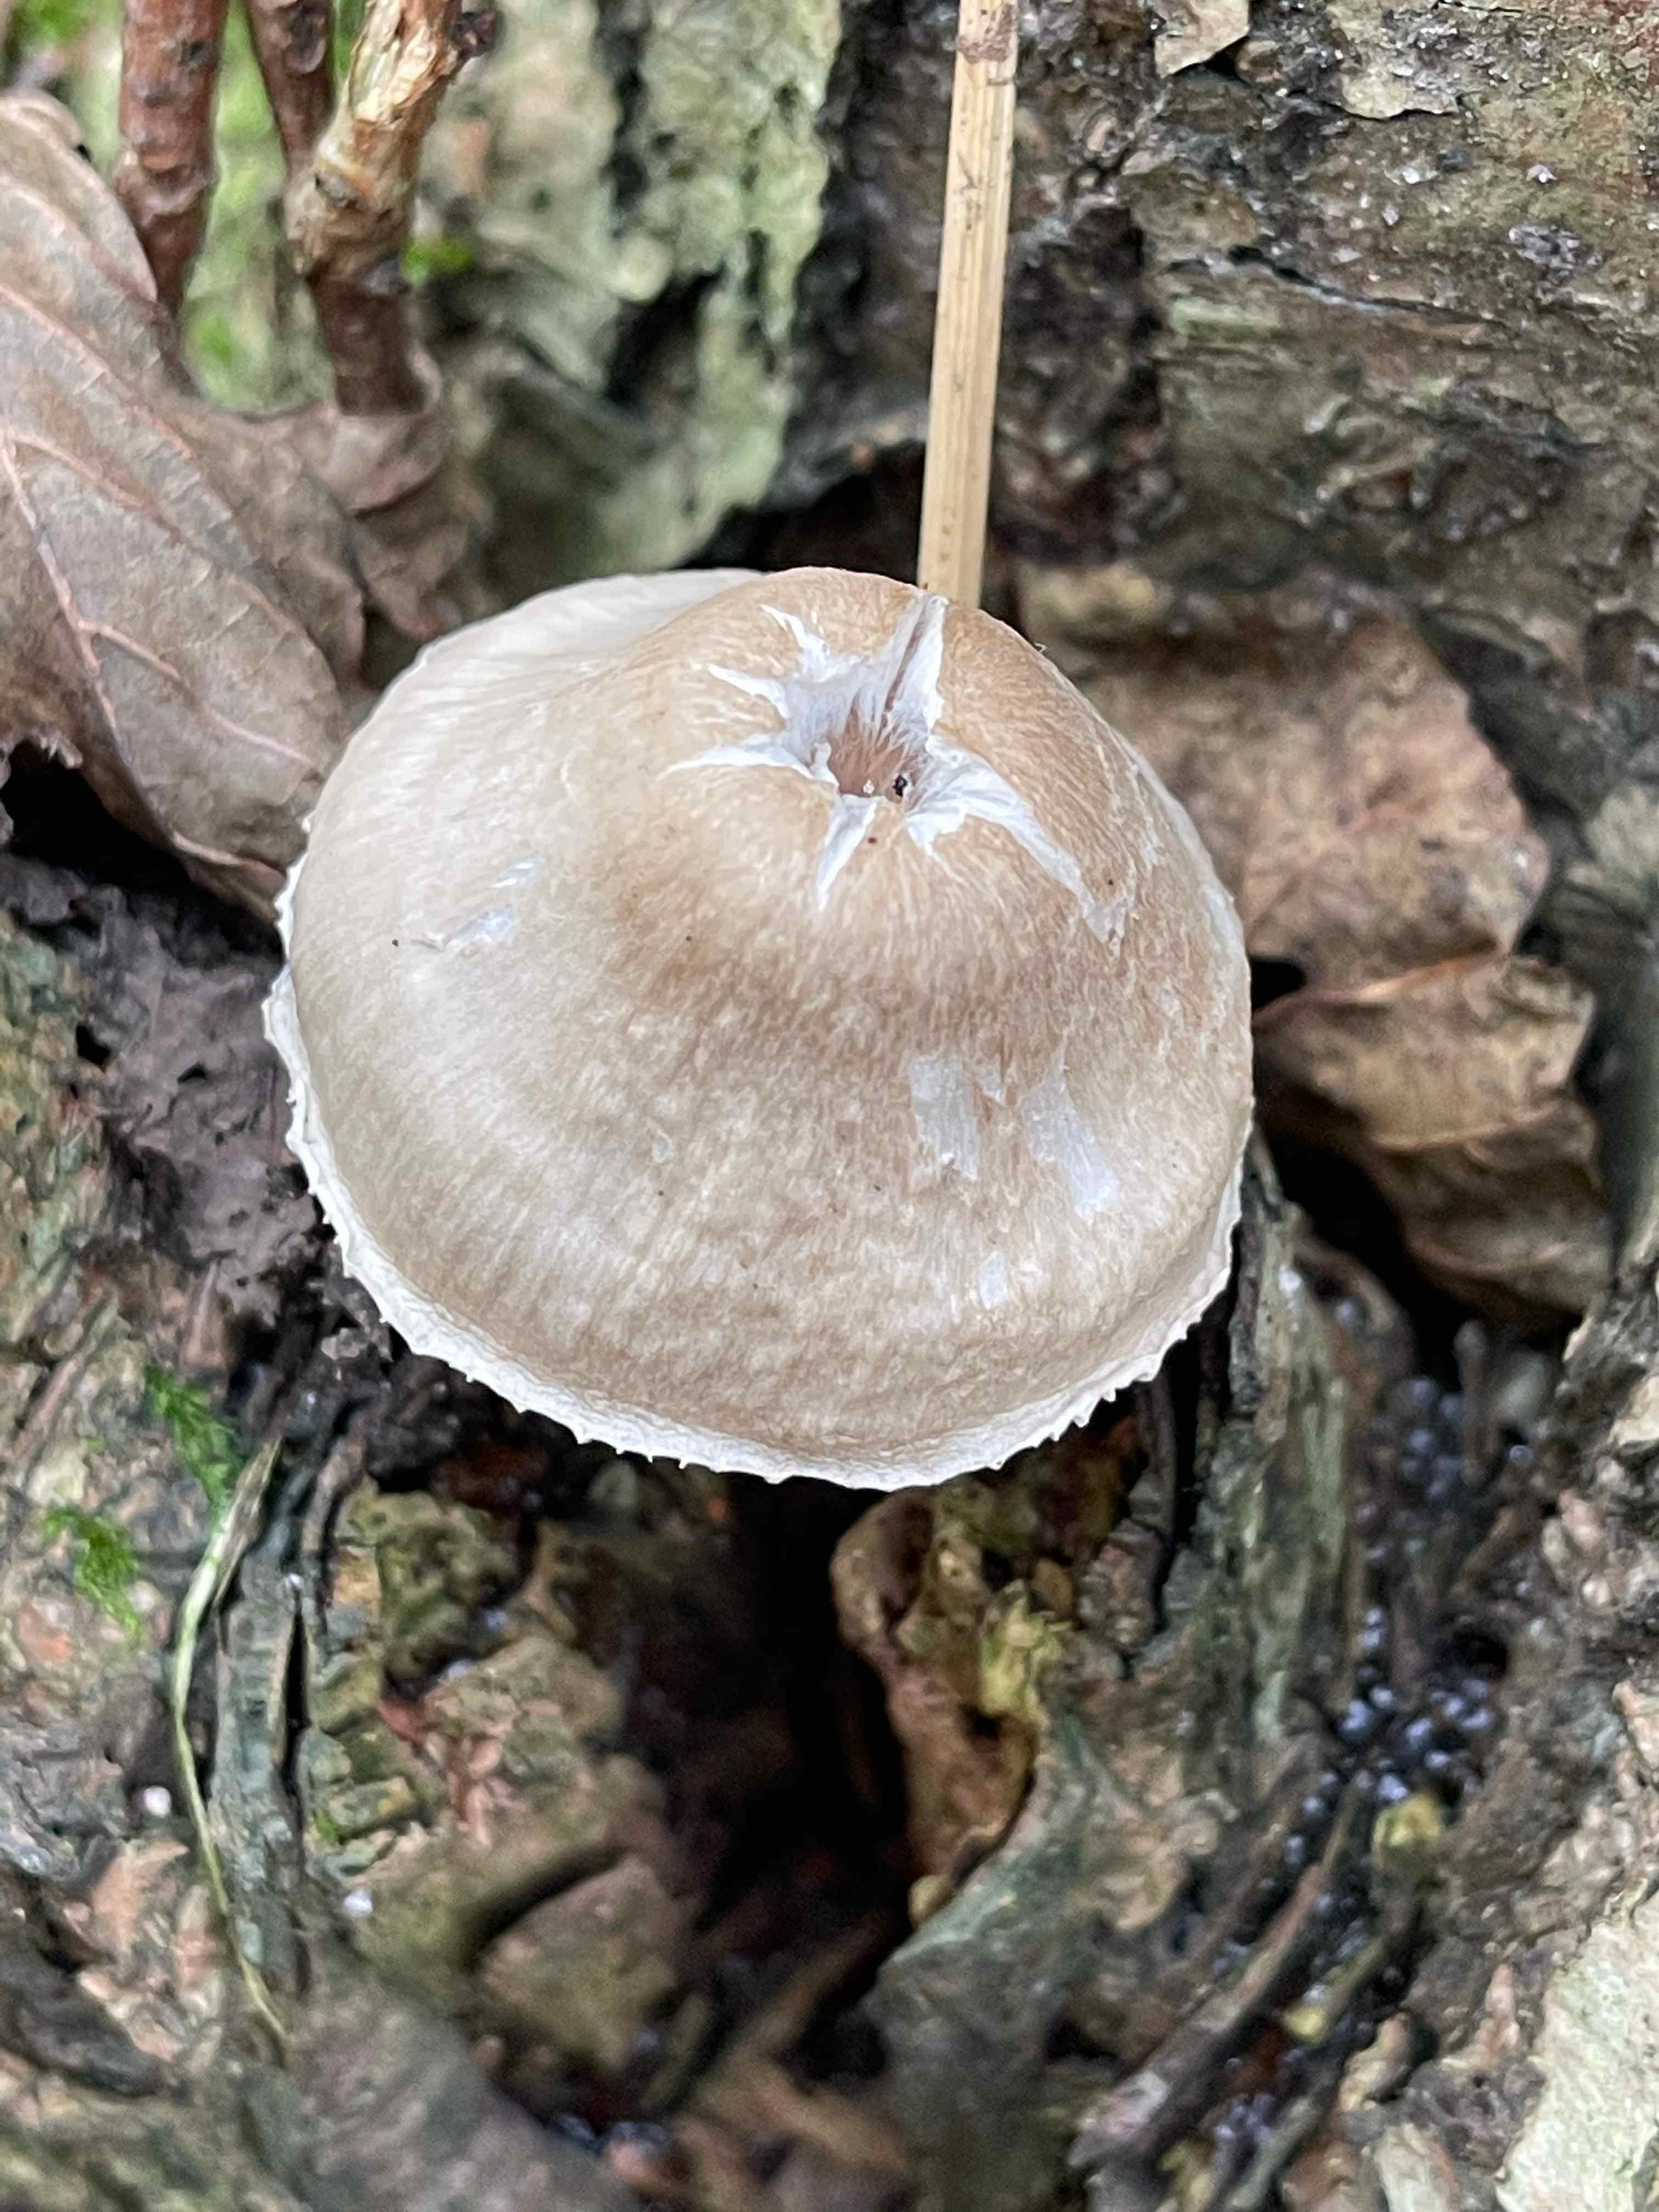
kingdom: Fungi
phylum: Basidiomycota
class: Agaricomycetes
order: Agaricales
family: Mycenaceae
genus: Mycena
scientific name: Mycena galericulata
